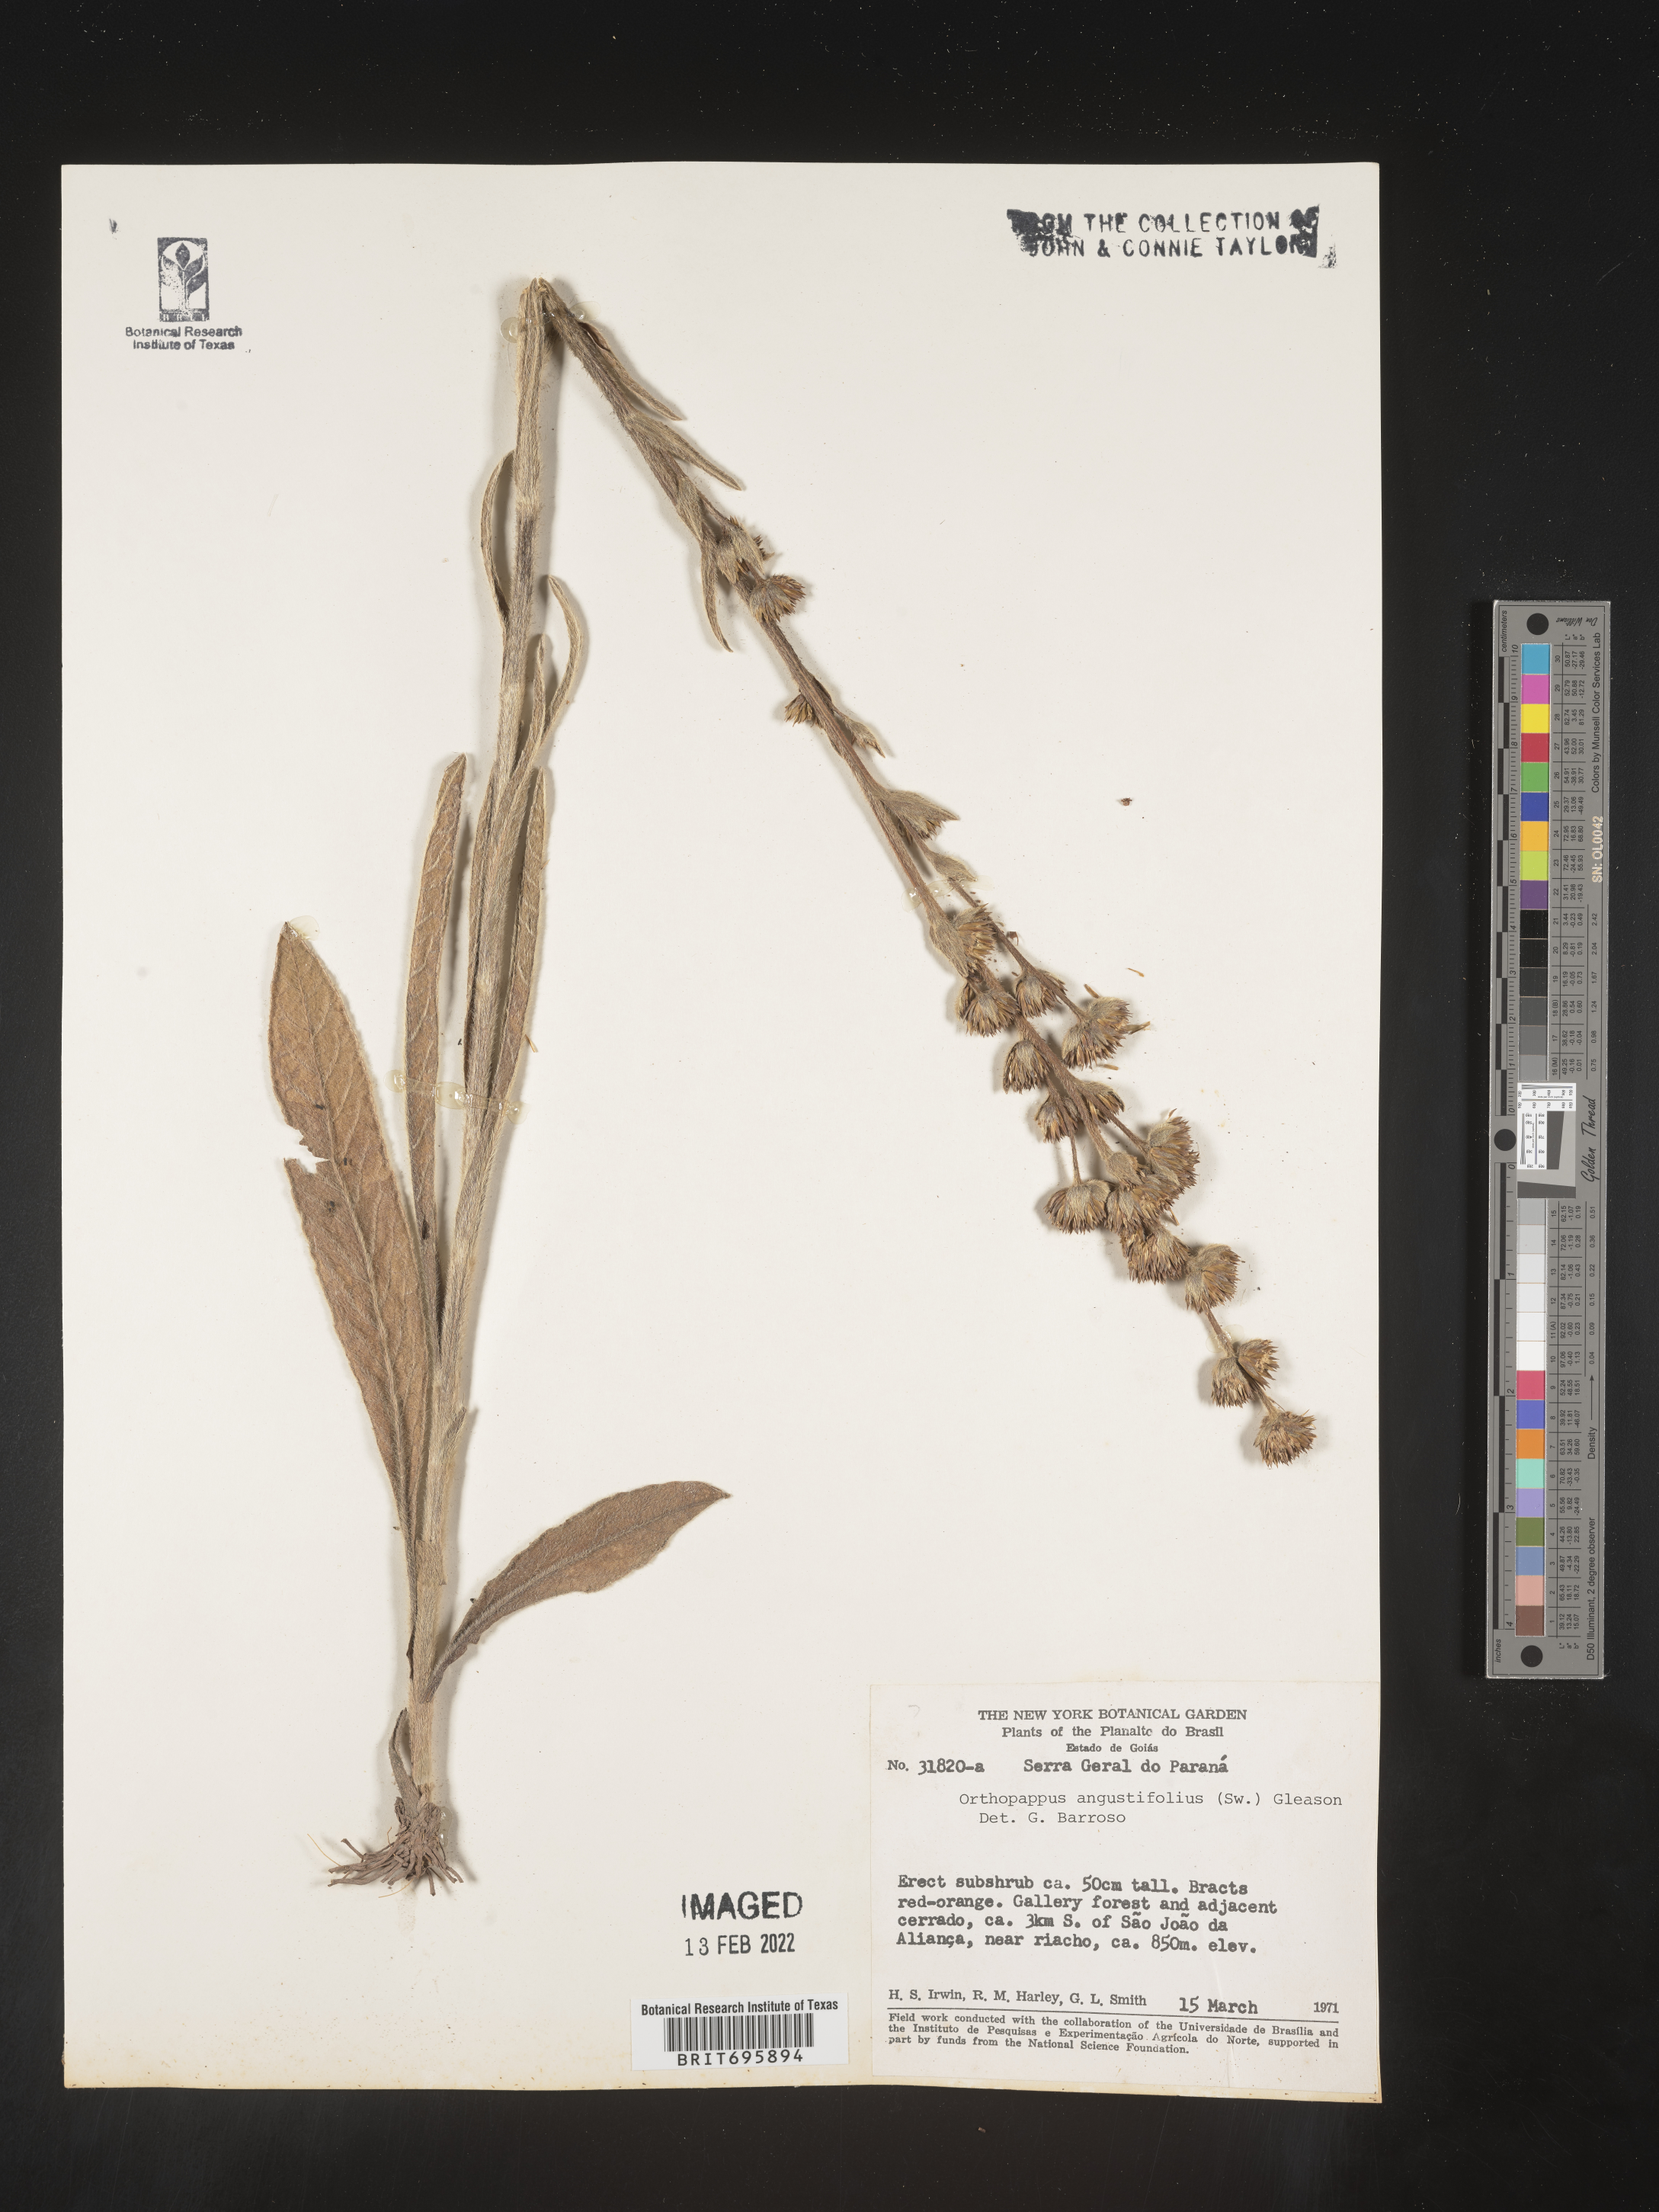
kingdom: Plantae
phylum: Tracheophyta
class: Magnoliopsida
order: Asterales
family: Asteraceae
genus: Elephantopus
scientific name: Elephantopus
